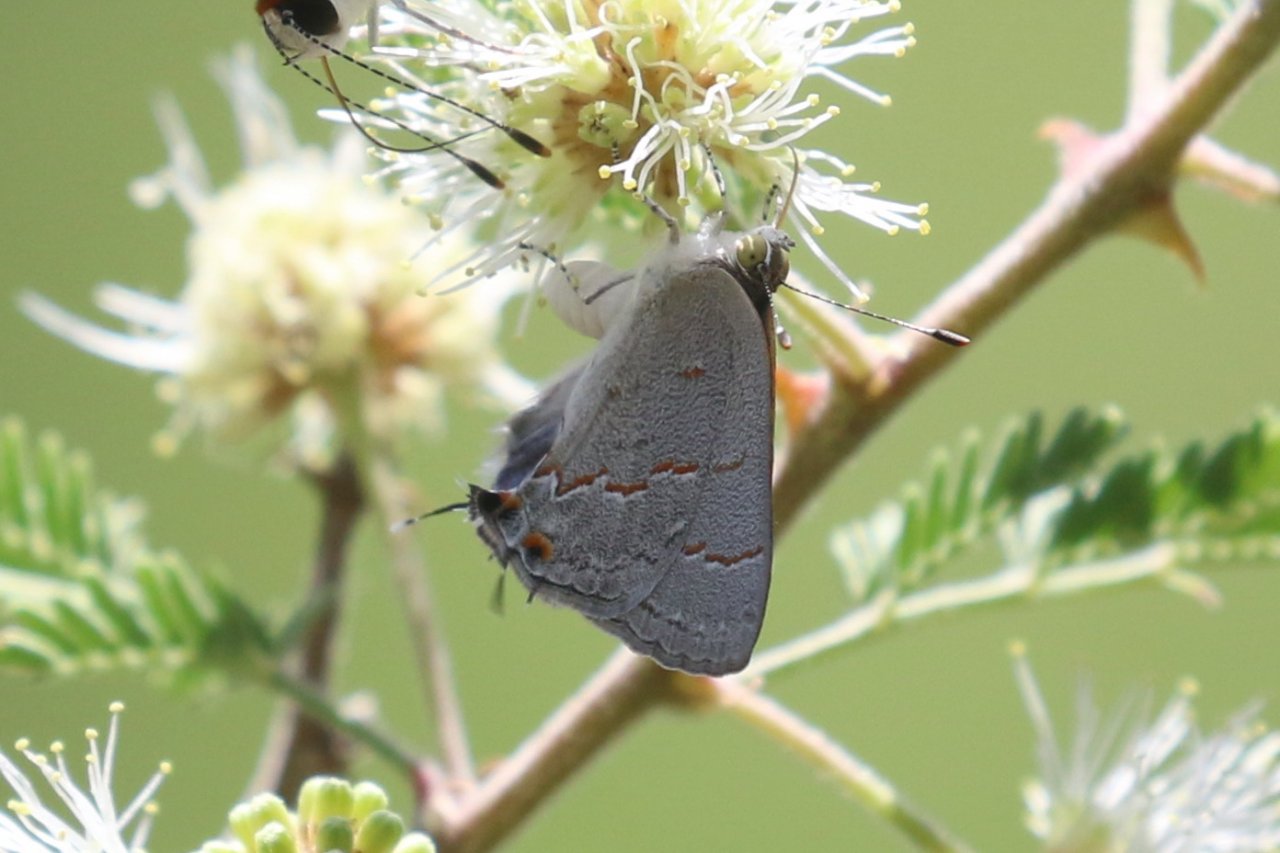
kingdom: Animalia
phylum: Arthropoda
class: Insecta
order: Lepidoptera
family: Lycaenidae
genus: Ministrymon
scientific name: Ministrymon leda
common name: Leda Ministreak
